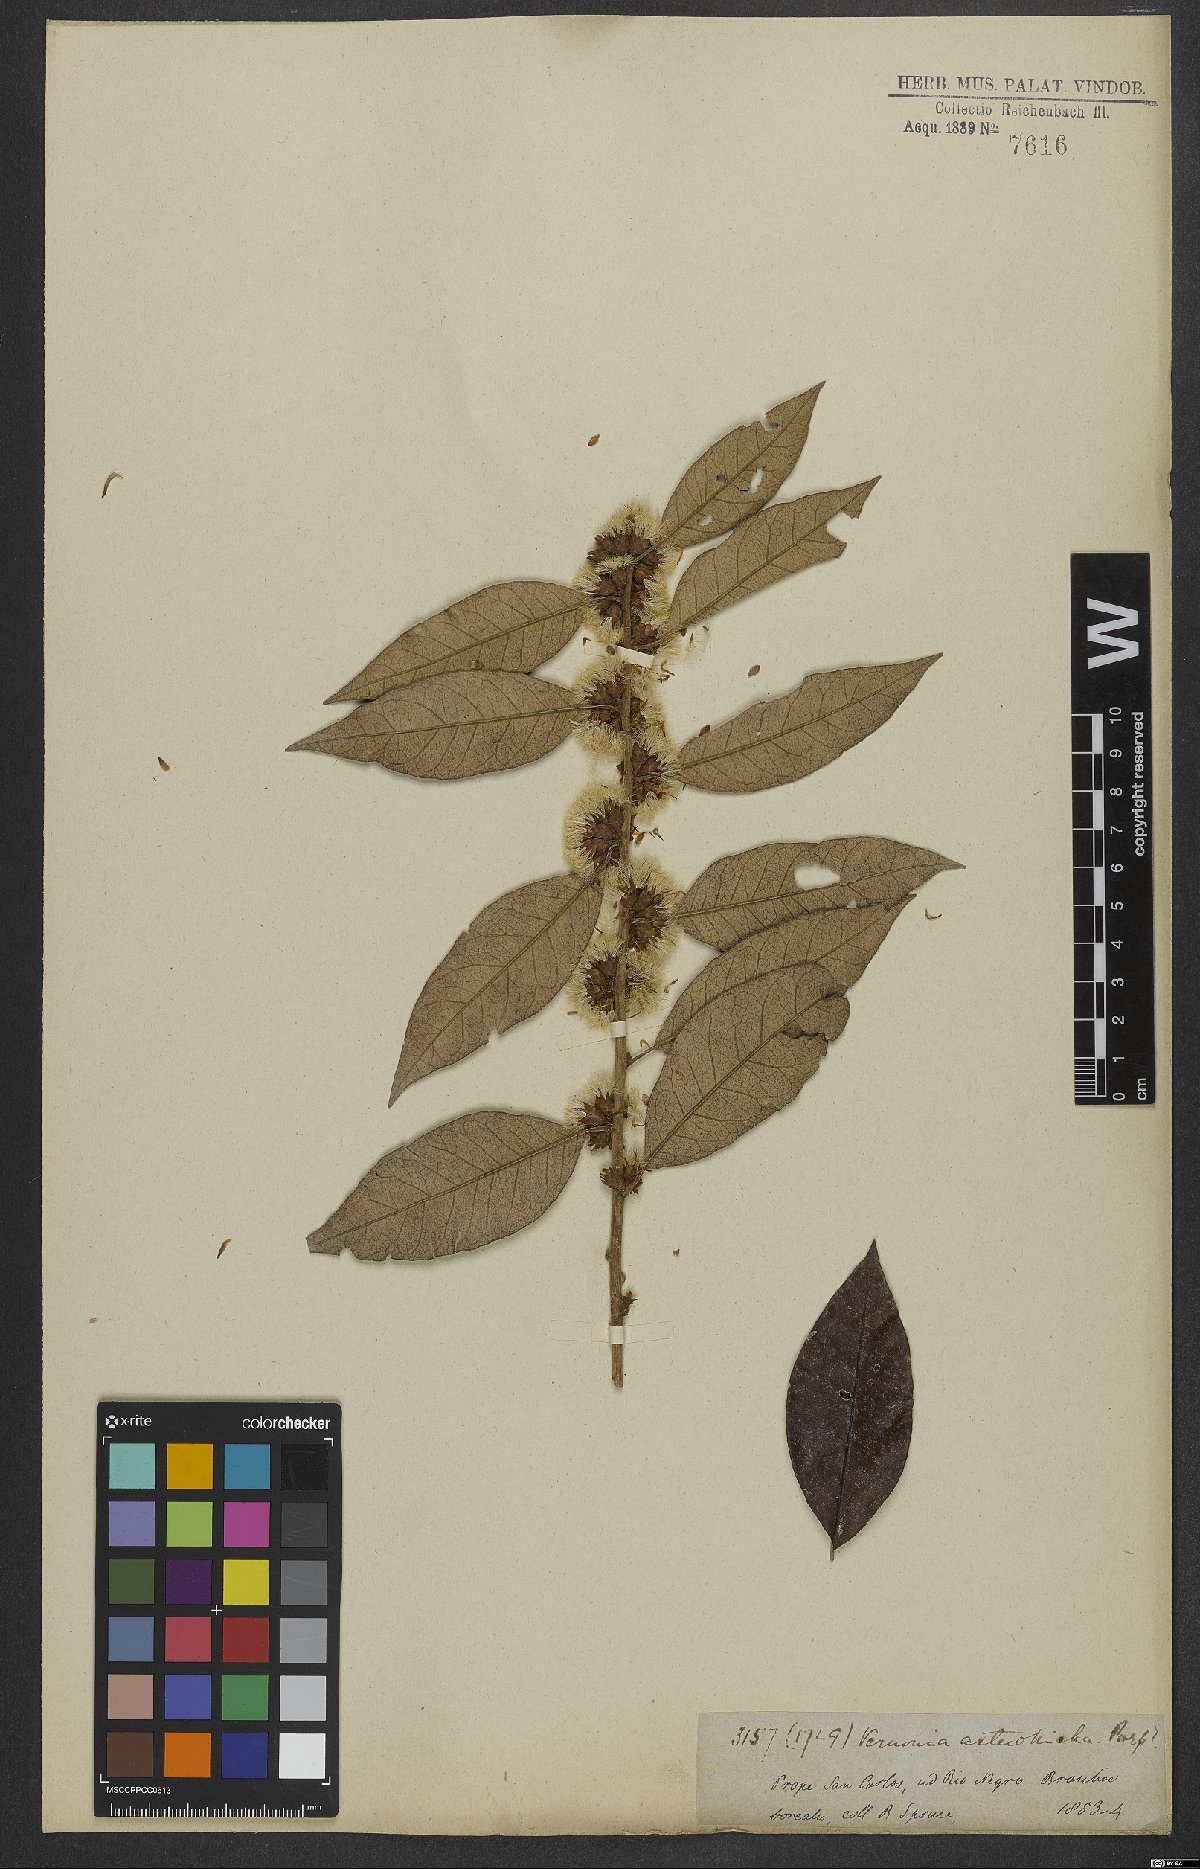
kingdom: Plantae
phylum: Tracheophyta
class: Magnoliopsida
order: Asterales
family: Asteraceae
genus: Piptocarpha
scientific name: Piptocarpha asterotrichia
